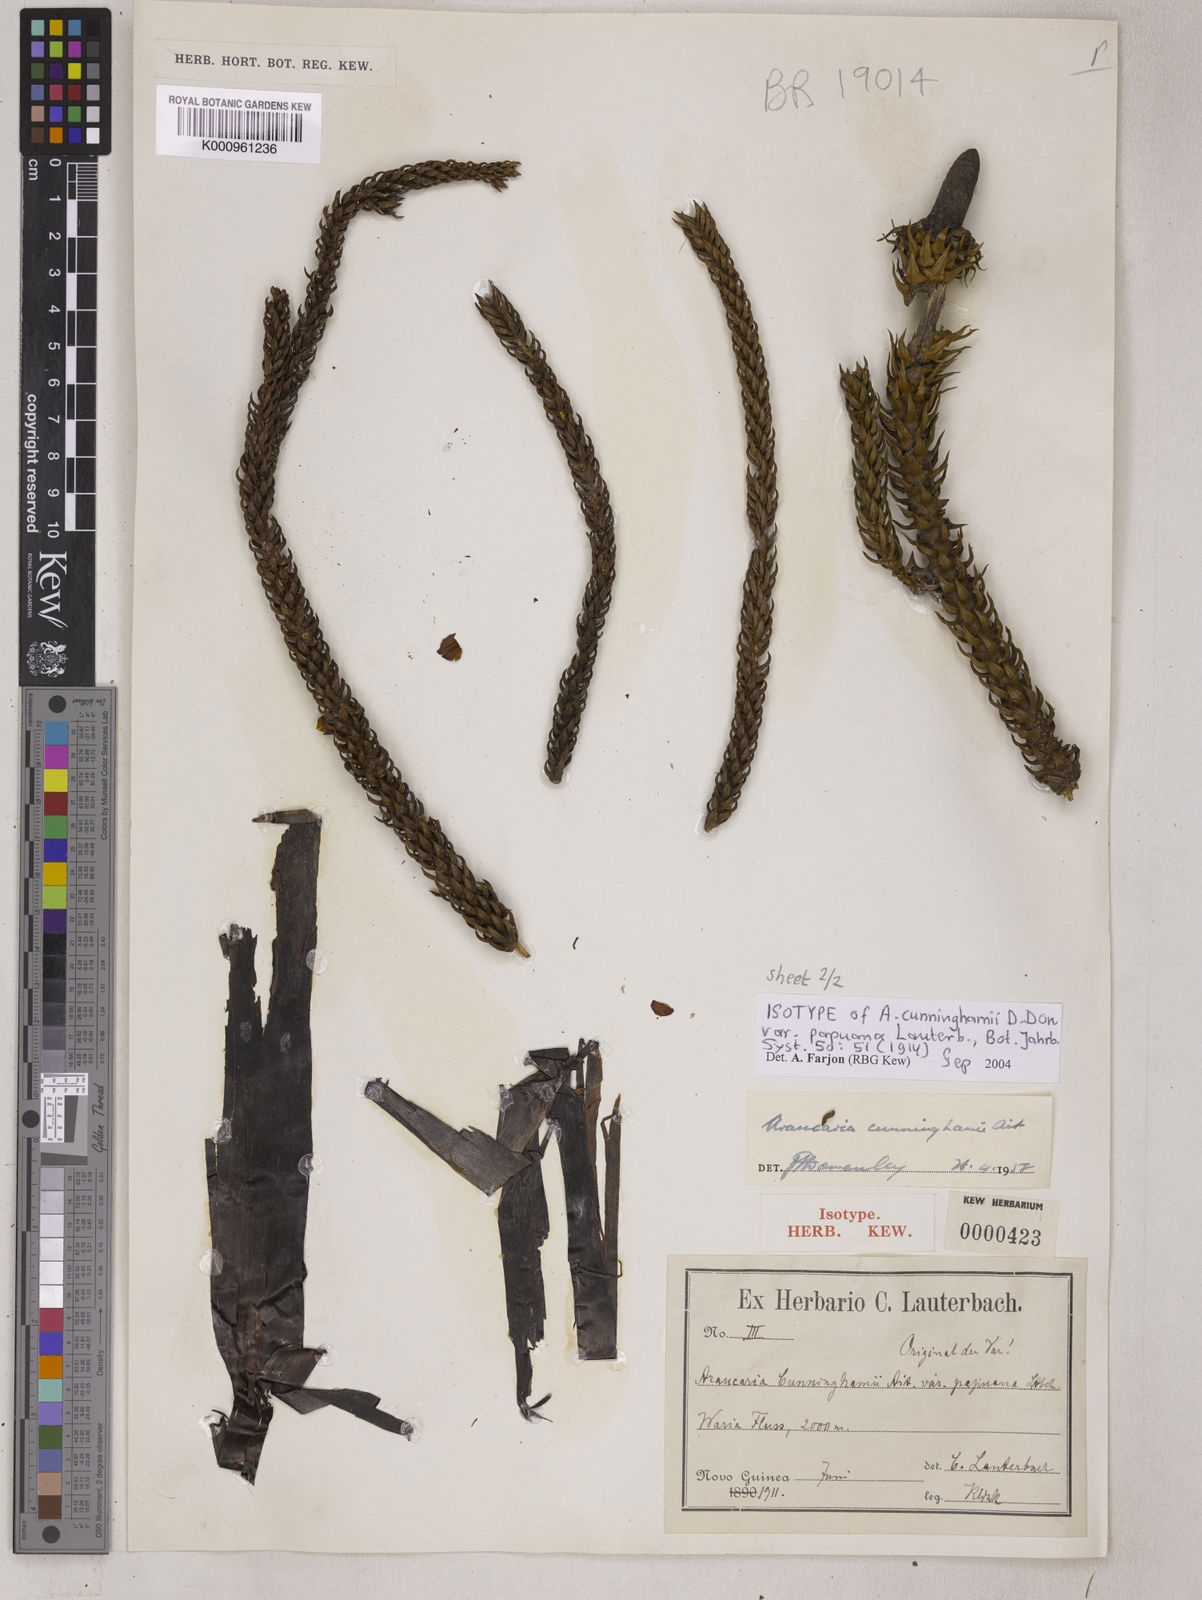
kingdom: Plantae
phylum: Tracheophyta
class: Pinopsida
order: Pinales
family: Araucariaceae
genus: Araucaria
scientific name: Araucaria
